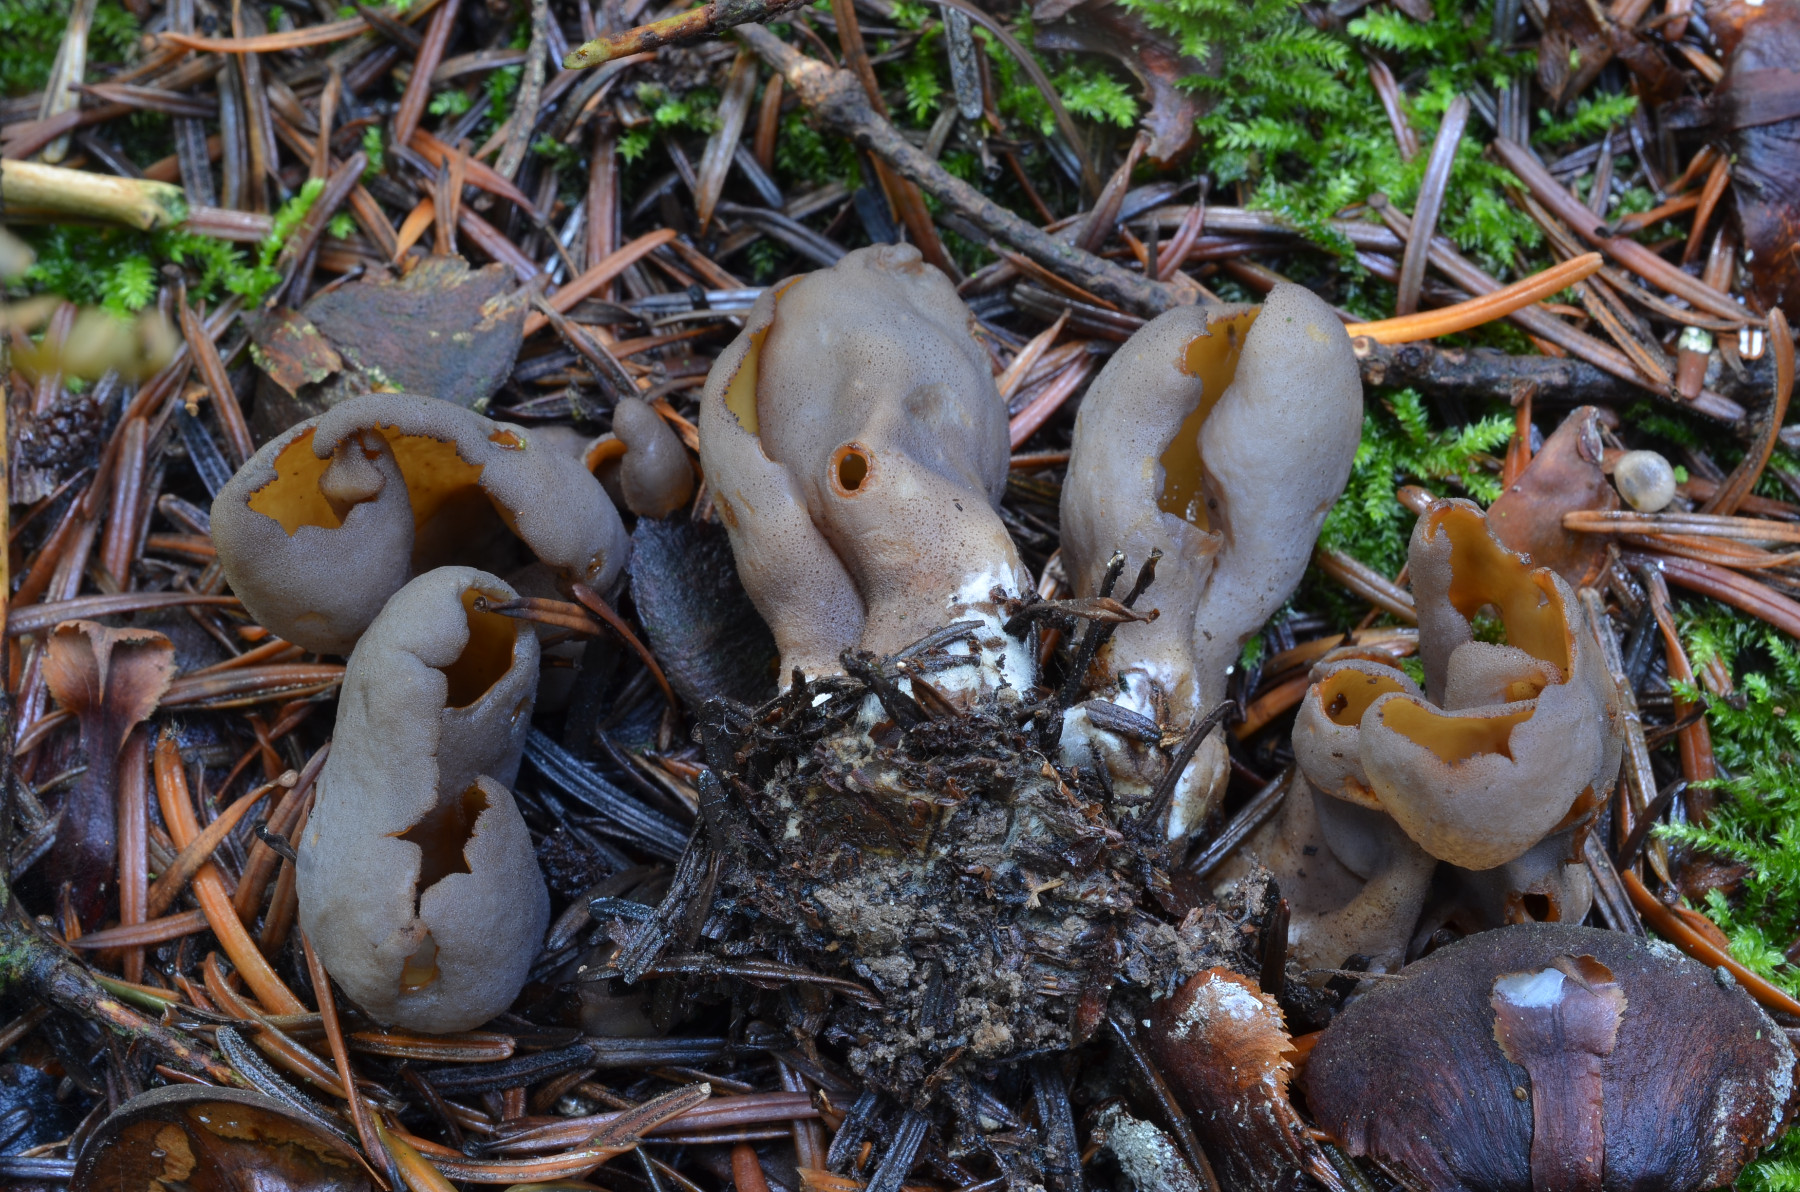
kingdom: Fungi
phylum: Ascomycota
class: Pezizomycetes
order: Pezizales
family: Otideaceae
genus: Otidea
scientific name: Otidea bufonia
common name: brun ørebæger
